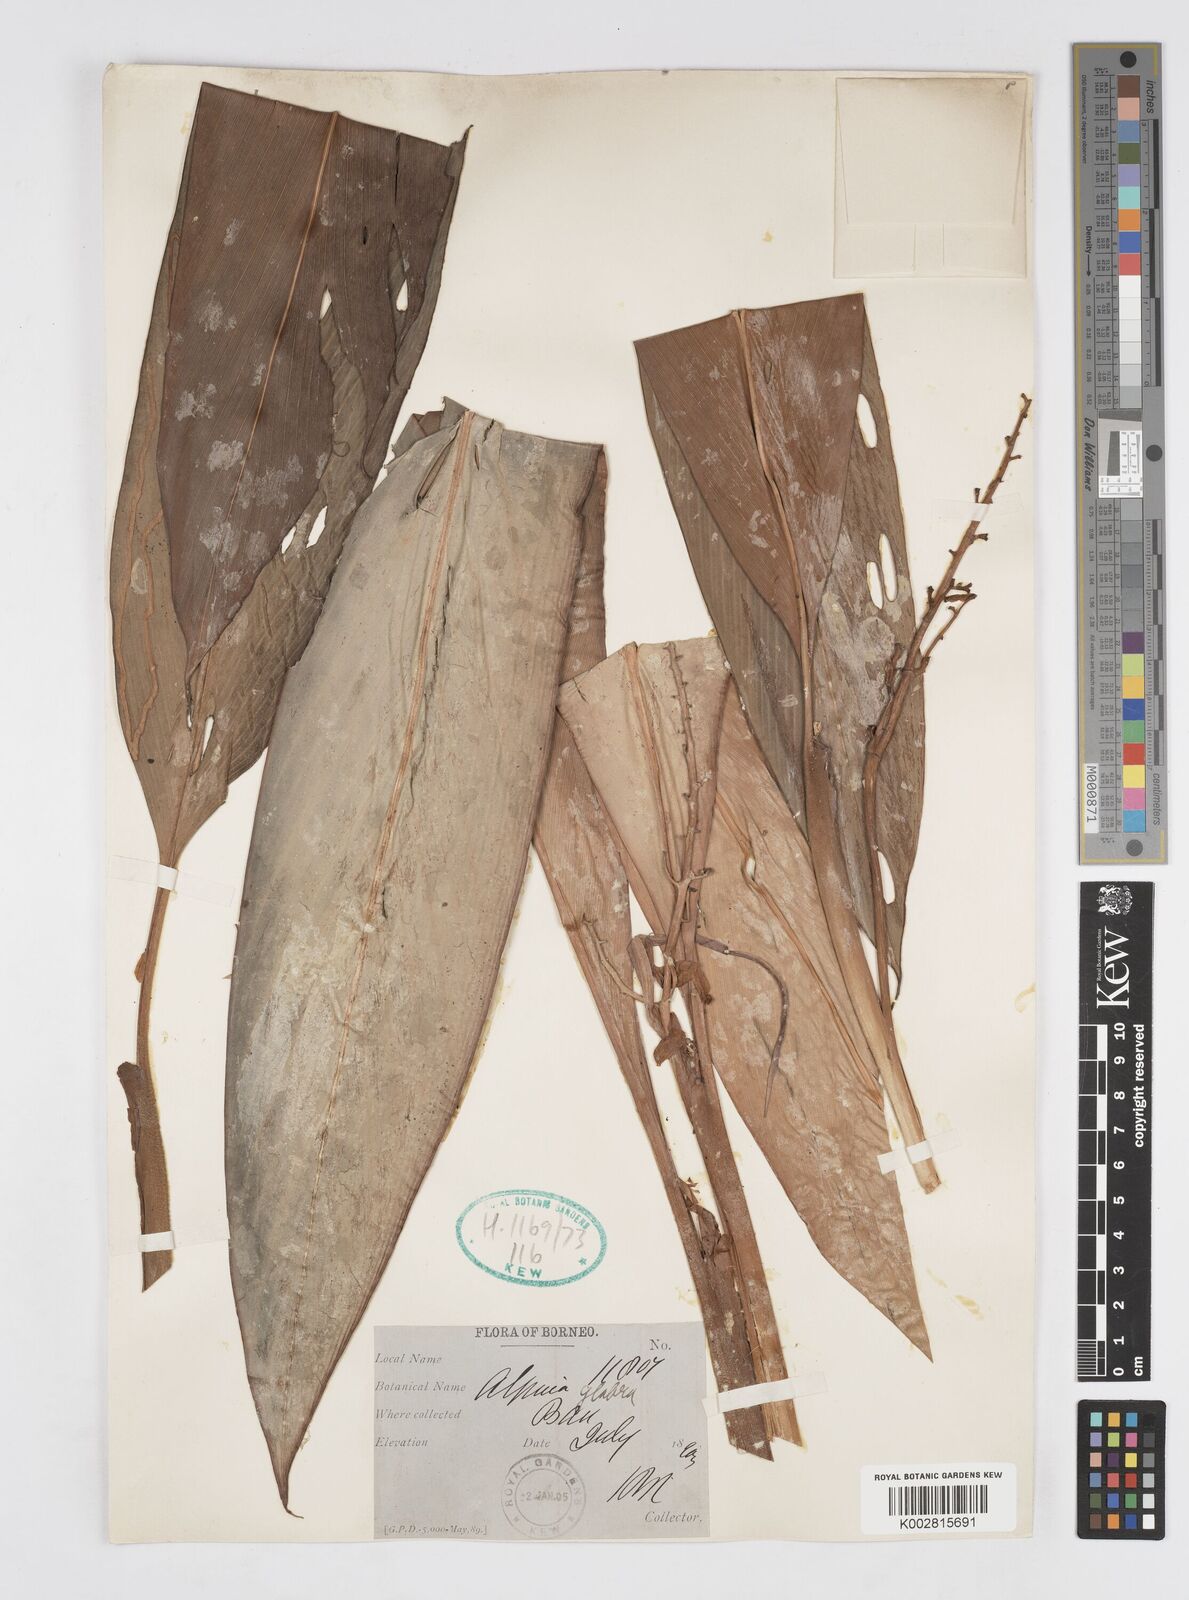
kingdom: Plantae
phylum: Tracheophyta
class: Liliopsida
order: Zingiberales
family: Zingiberaceae
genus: Alpinia
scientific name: Alpinia glabra
